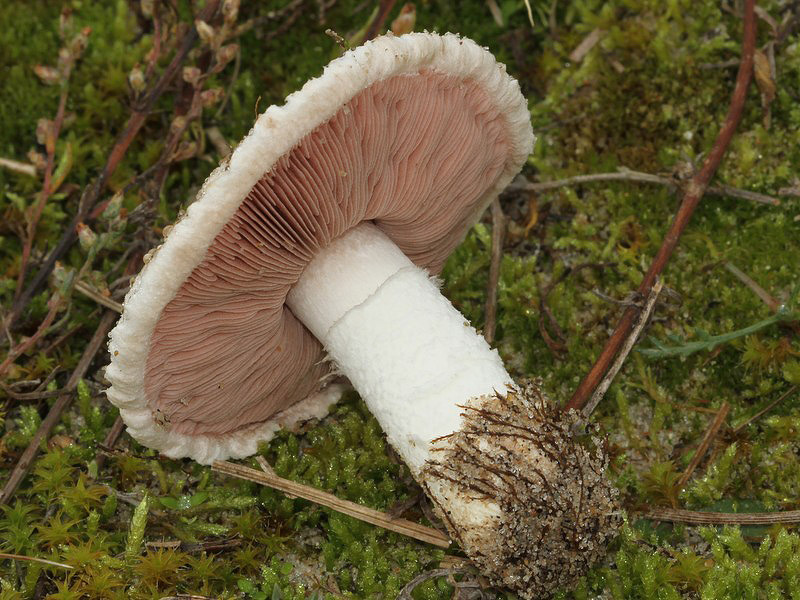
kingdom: Fungi
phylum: Basidiomycota
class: Agaricomycetes
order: Agaricales
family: Agaricaceae
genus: Agaricus
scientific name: Agaricus devoniensis
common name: klit-champignon
